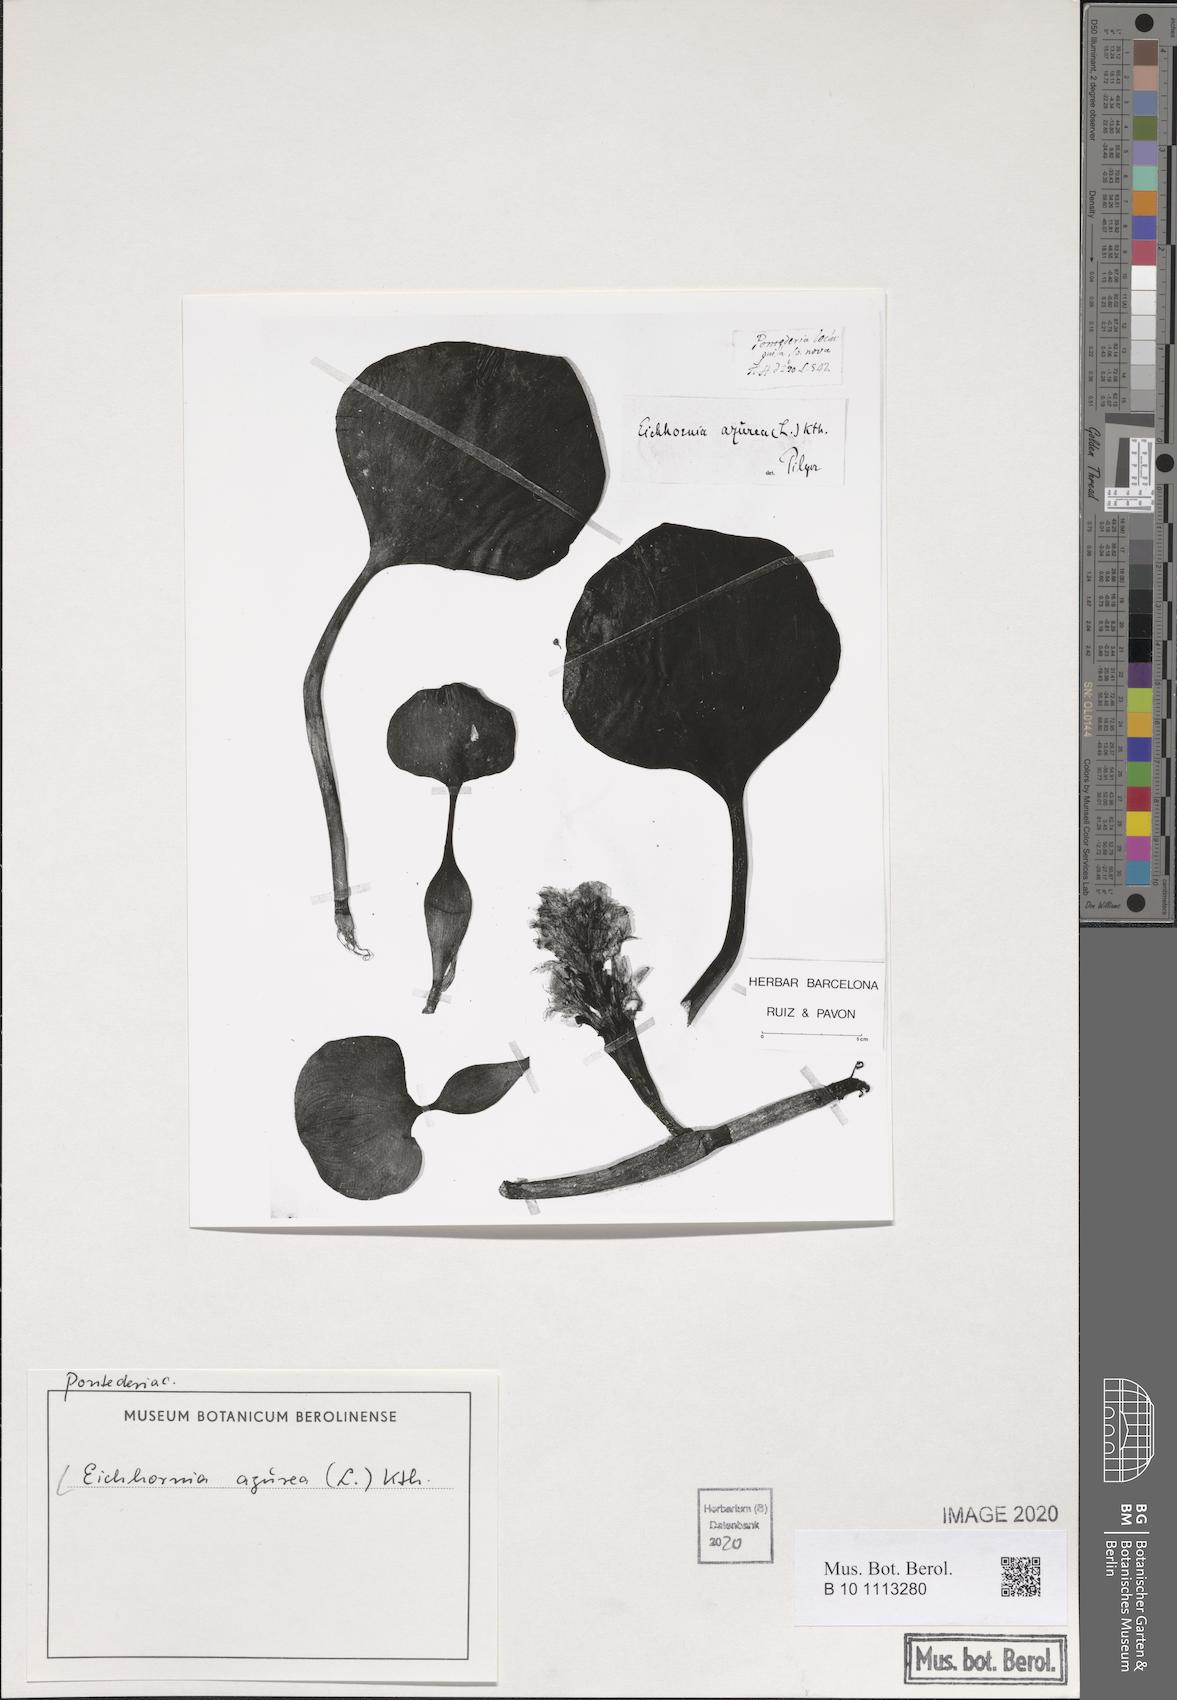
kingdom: Plantae
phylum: Tracheophyta
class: Liliopsida
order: Commelinales
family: Pontederiaceae
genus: Pontederia
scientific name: Pontederia azurea
